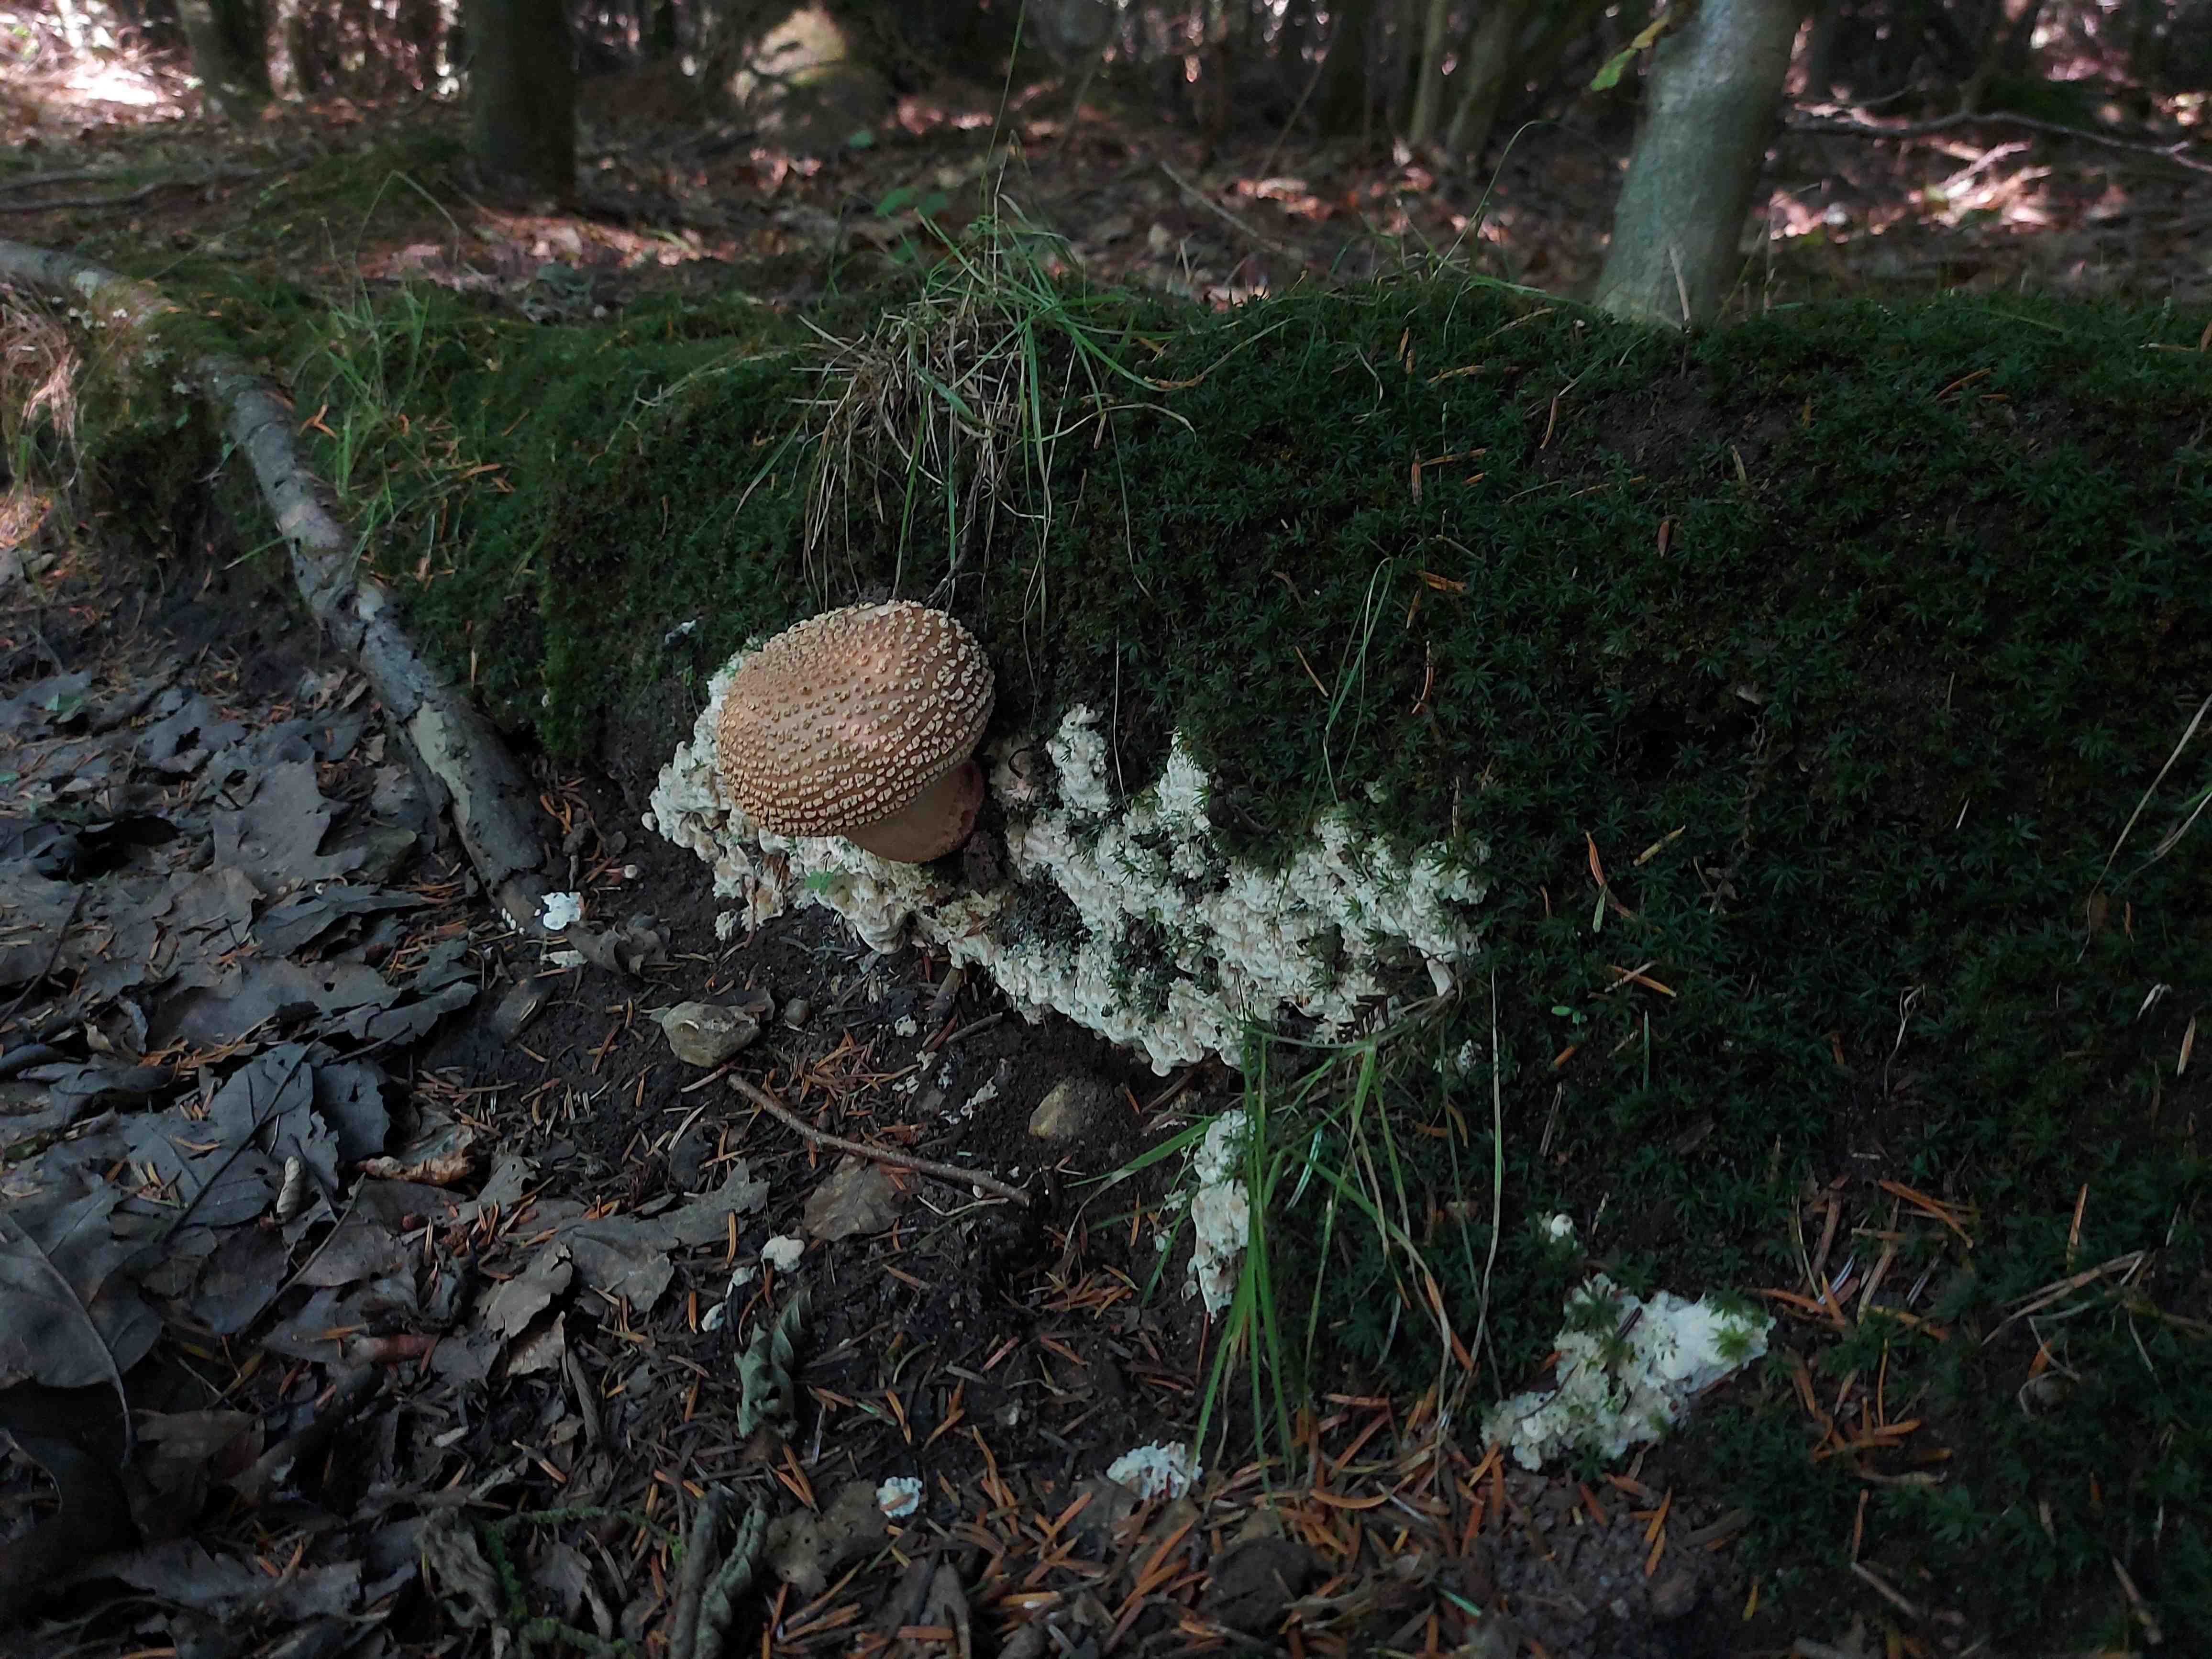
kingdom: Fungi
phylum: Basidiomycota
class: Agaricomycetes
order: Agaricales
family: Amanitaceae
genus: Amanita
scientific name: Amanita rubescens
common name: rødmende fluesvamp
